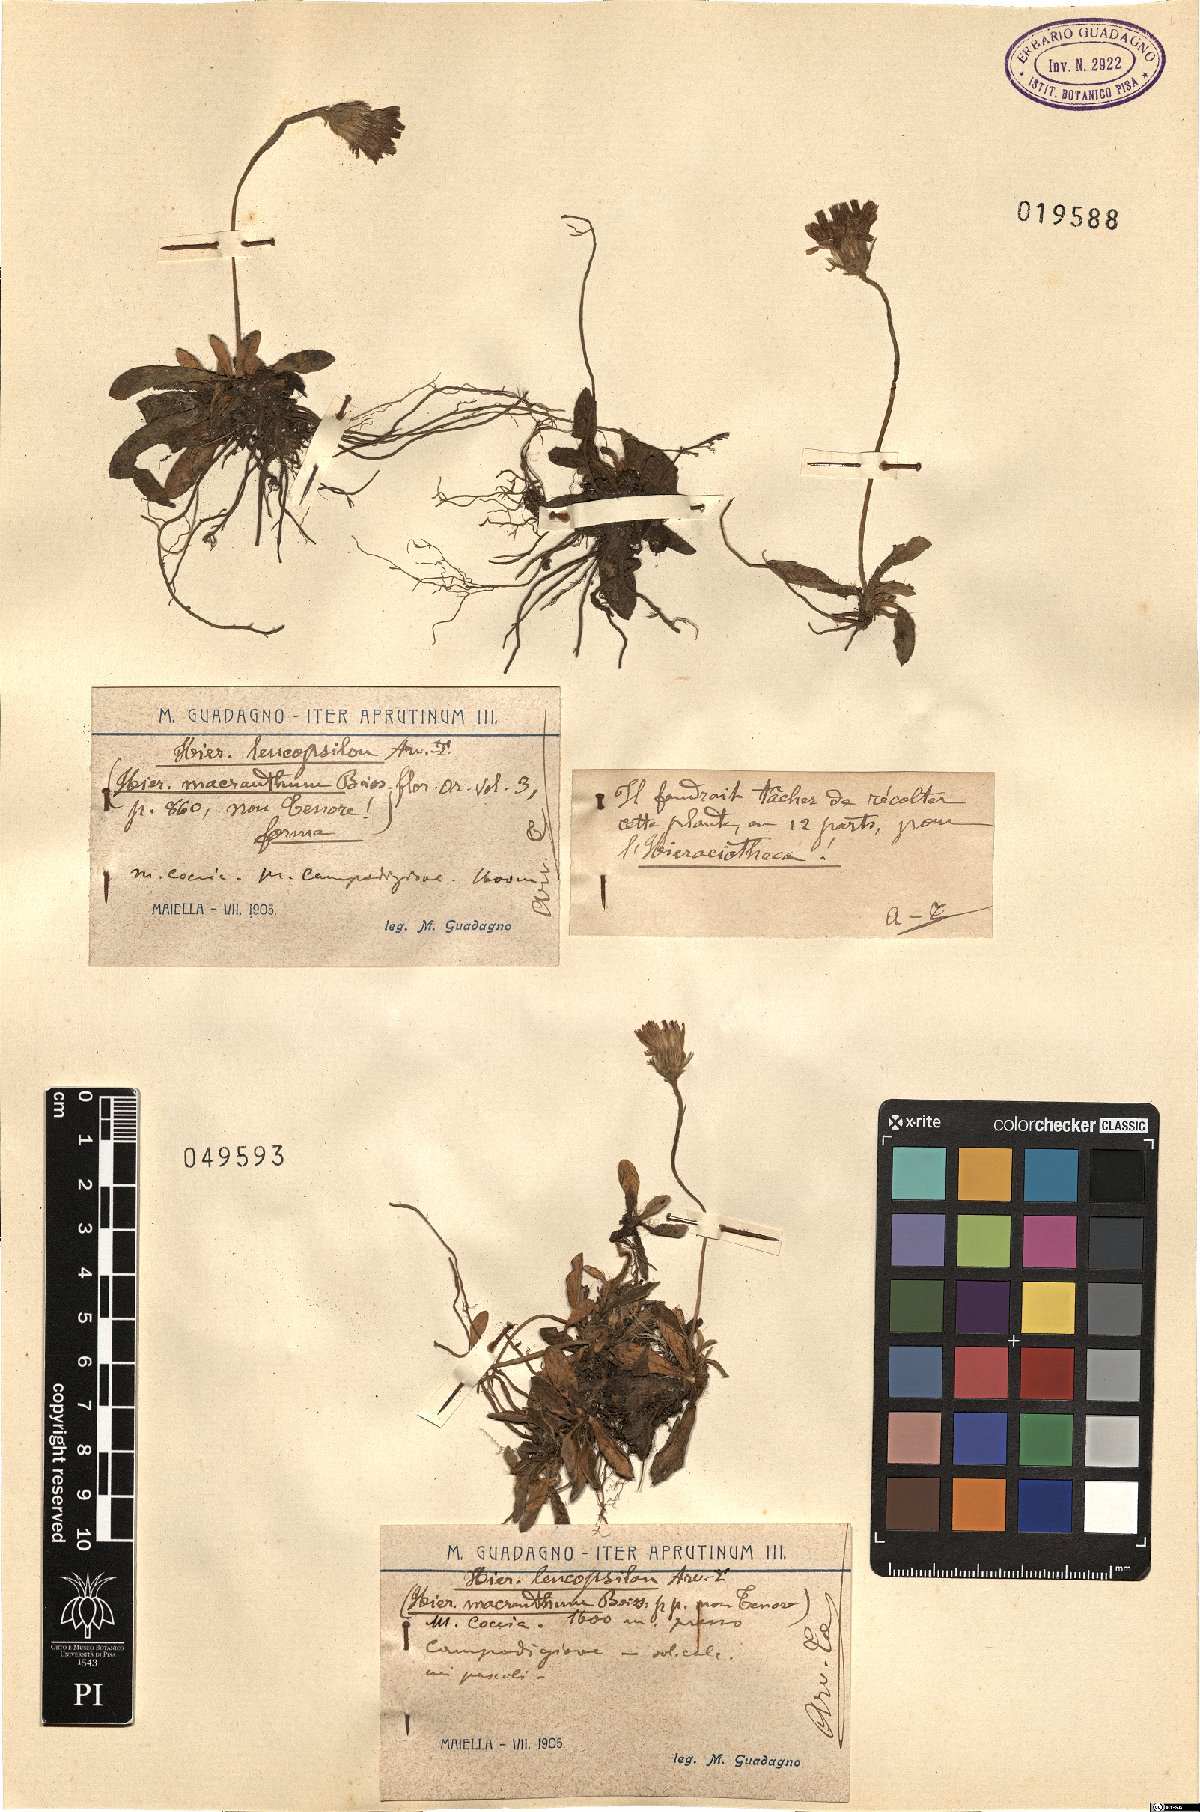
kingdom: Plantae
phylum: Tracheophyta
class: Magnoliopsida
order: Asterales
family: Asteraceae
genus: Pilosella
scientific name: Pilosella leucopsilon
